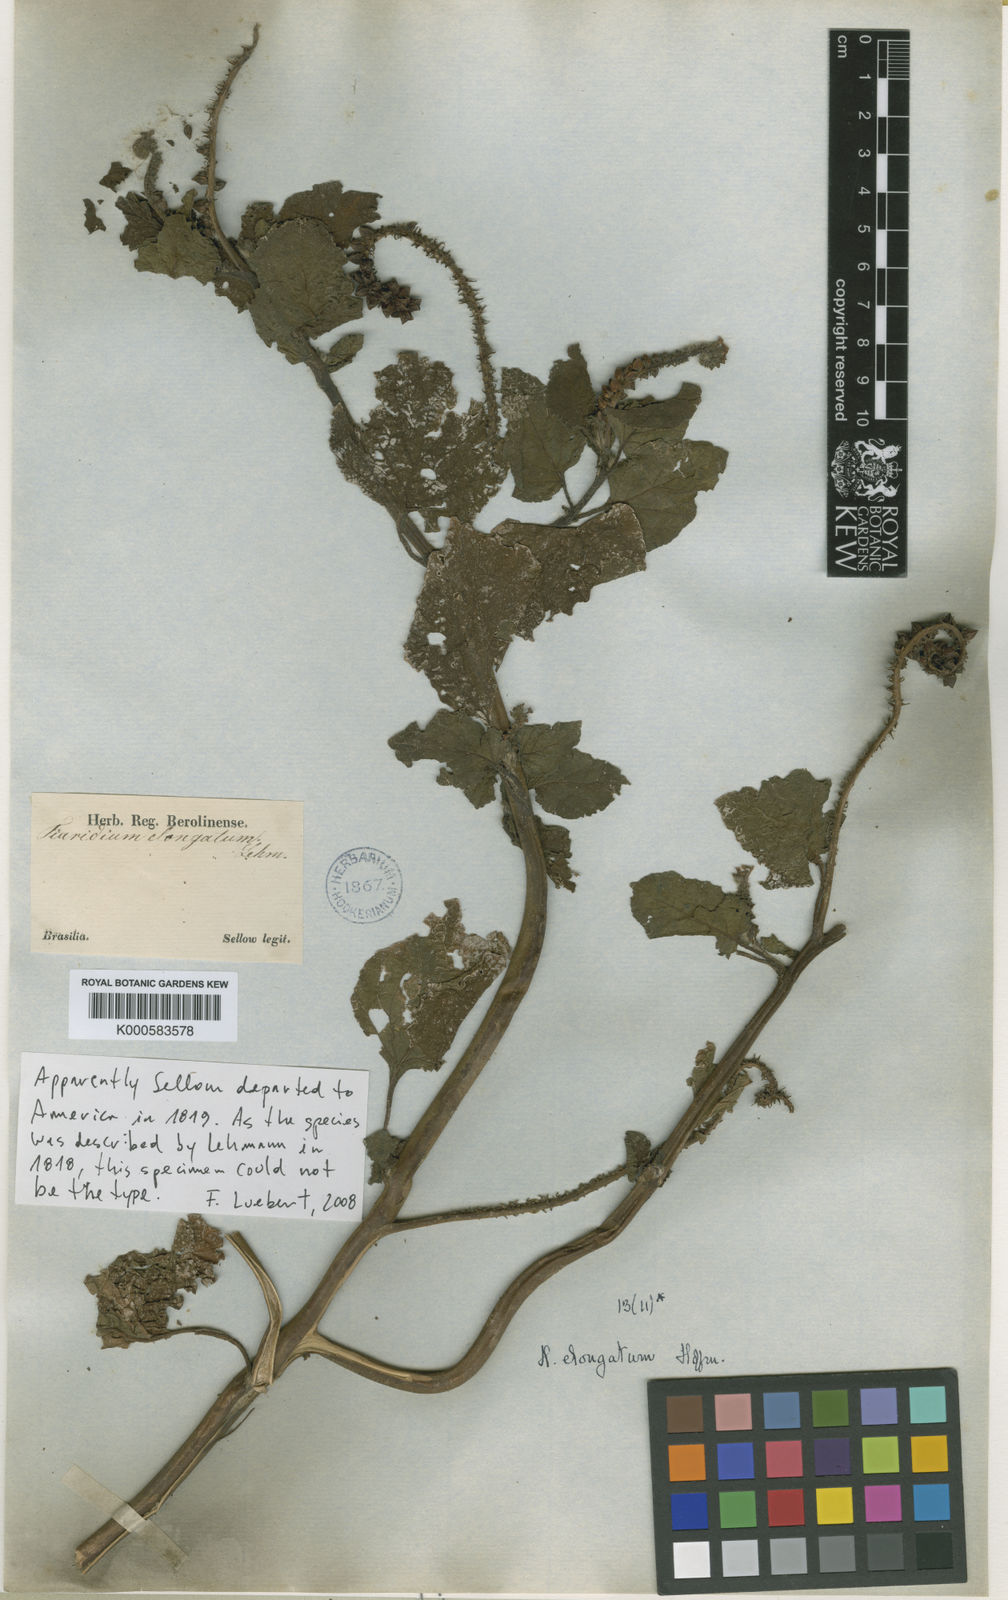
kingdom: Plantae
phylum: Tracheophyta
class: Magnoliopsida
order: Boraginales
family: Heliotropiaceae
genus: Heliotropium
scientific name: Heliotropium
